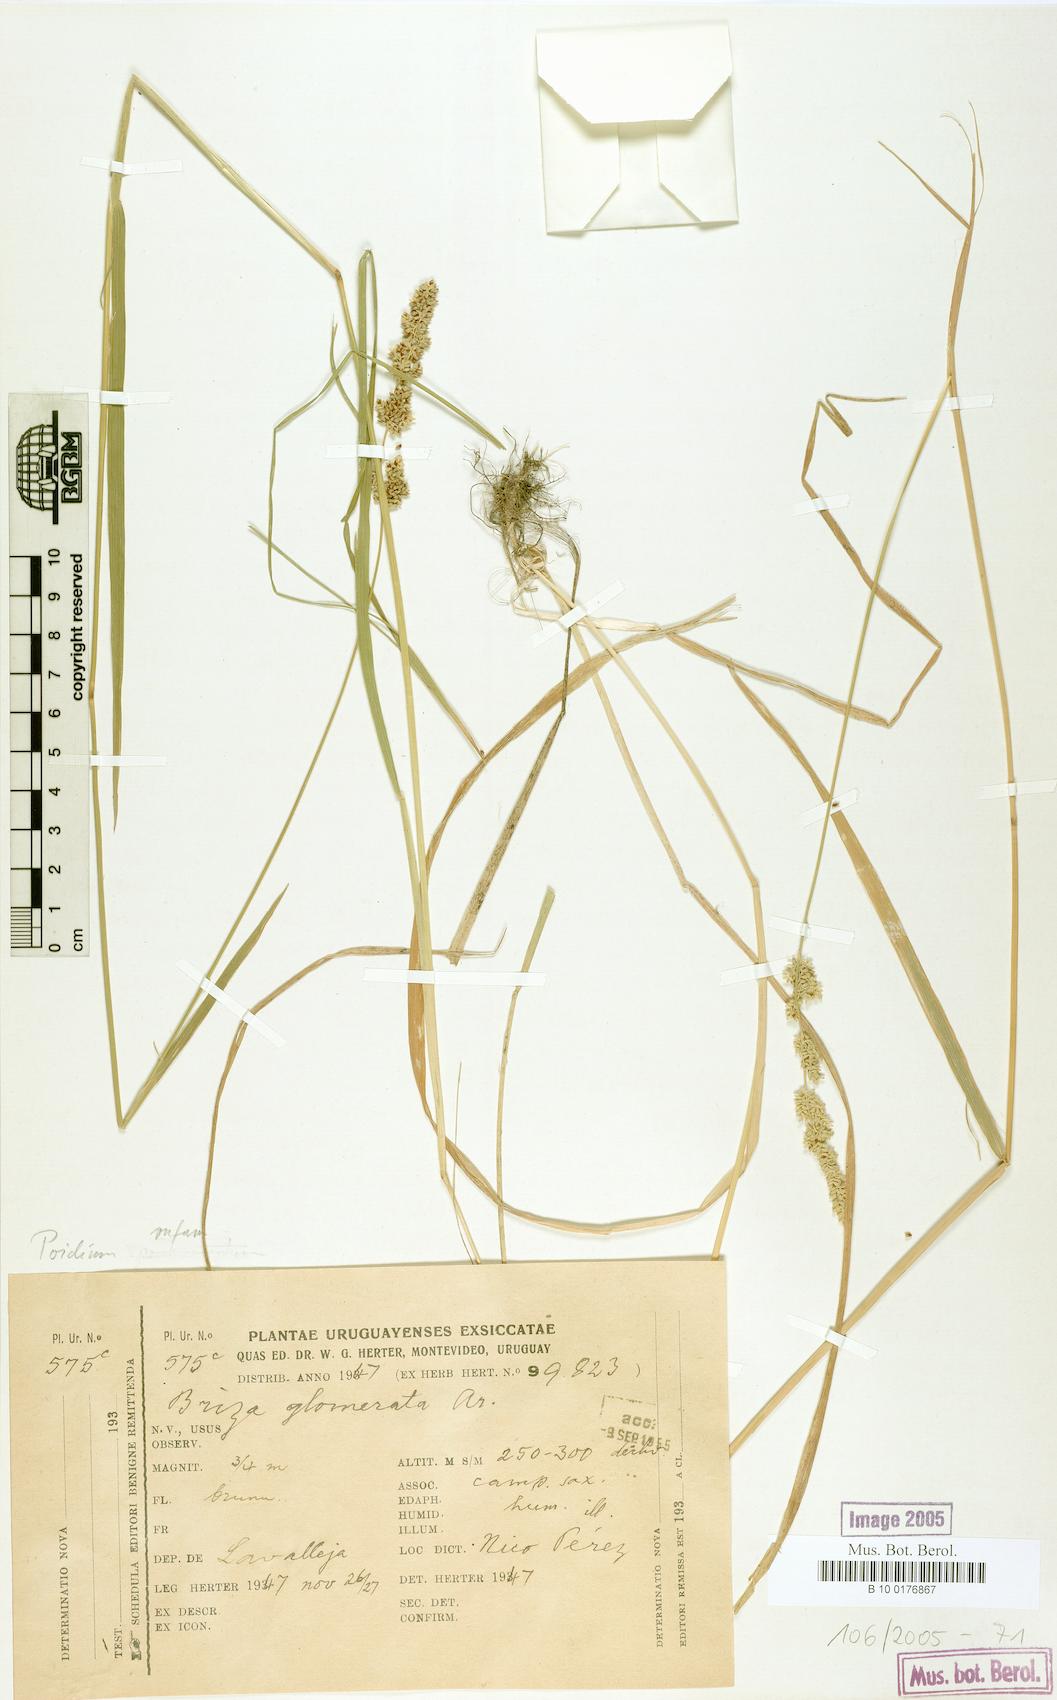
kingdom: Plantae
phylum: Tracheophyta
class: Liliopsida
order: Poales
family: Poaceae
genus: Lombardochloa
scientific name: Lombardochloa rufa
